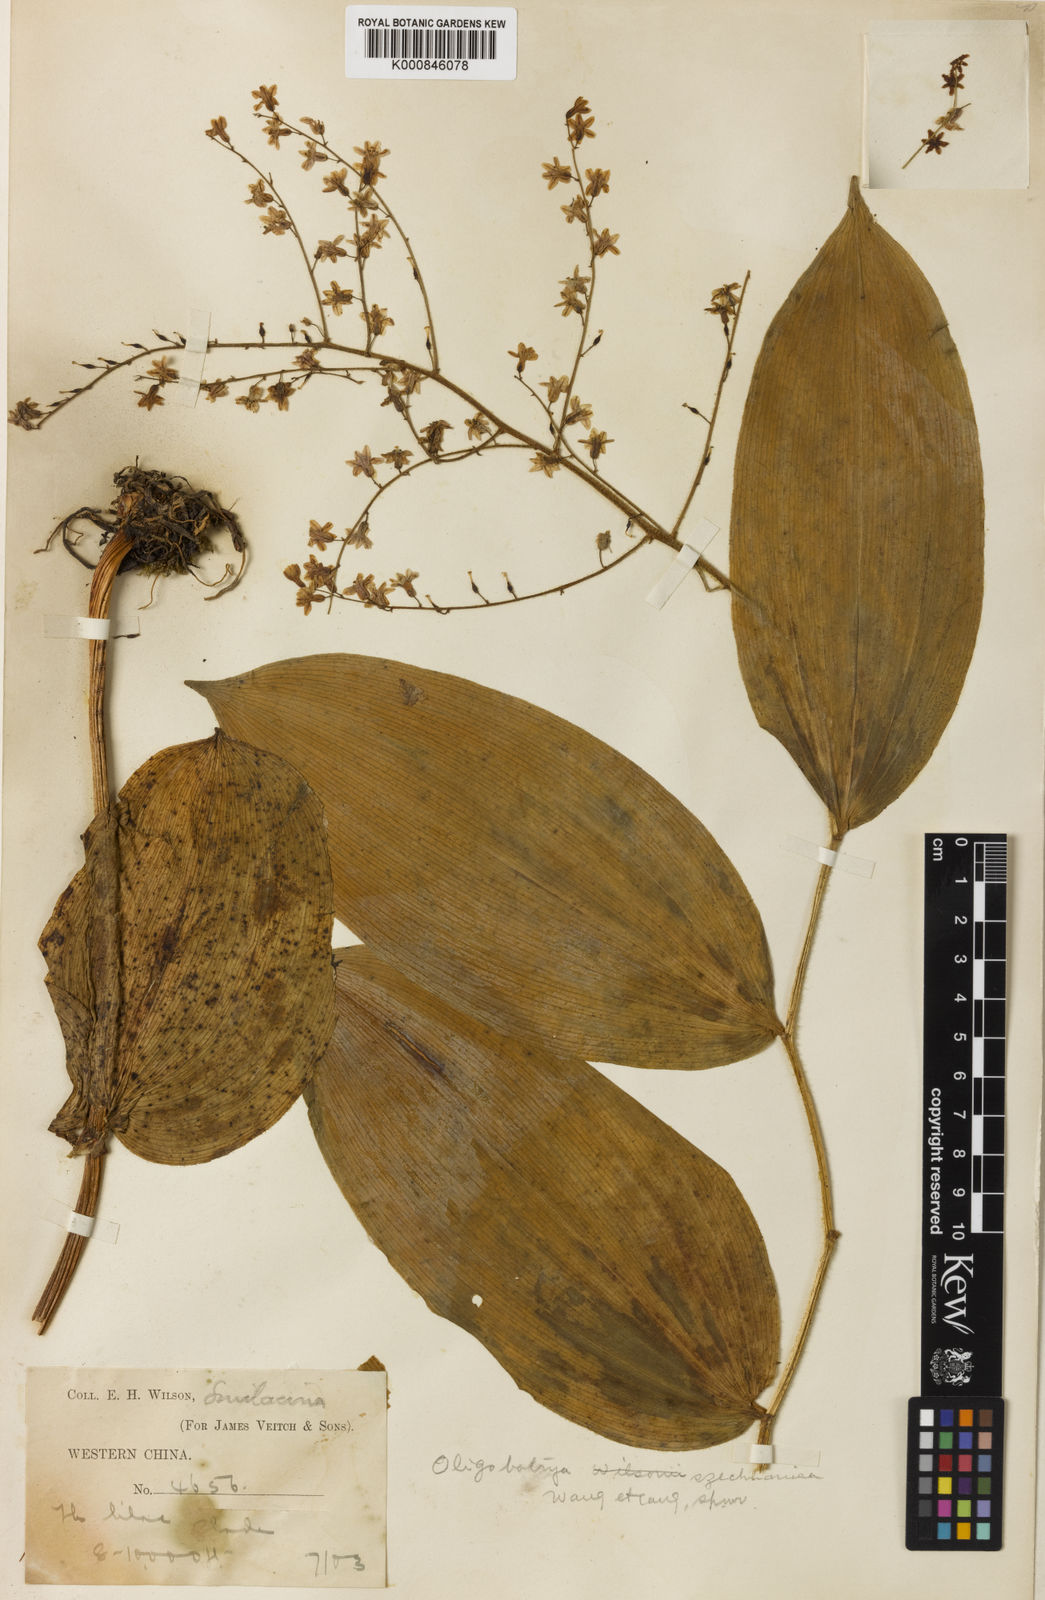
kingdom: Plantae
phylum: Tracheophyta
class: Liliopsida
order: Asparagales
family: Asparagaceae
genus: Maianthemum
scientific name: Maianthemum szechuanicum
